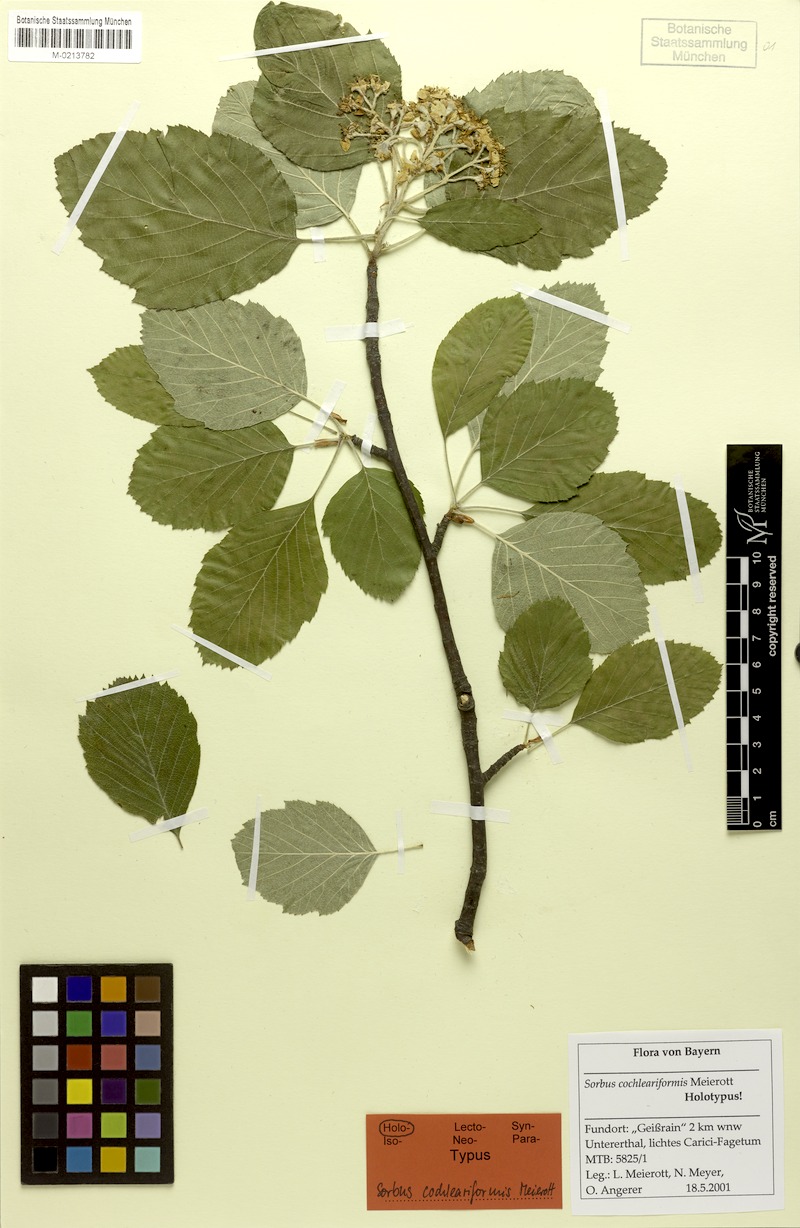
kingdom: Plantae
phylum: Tracheophyta
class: Magnoliopsida
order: Rosales
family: Rosaceae
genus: Karpatiosorbus
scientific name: Karpatiosorbus hybrida
